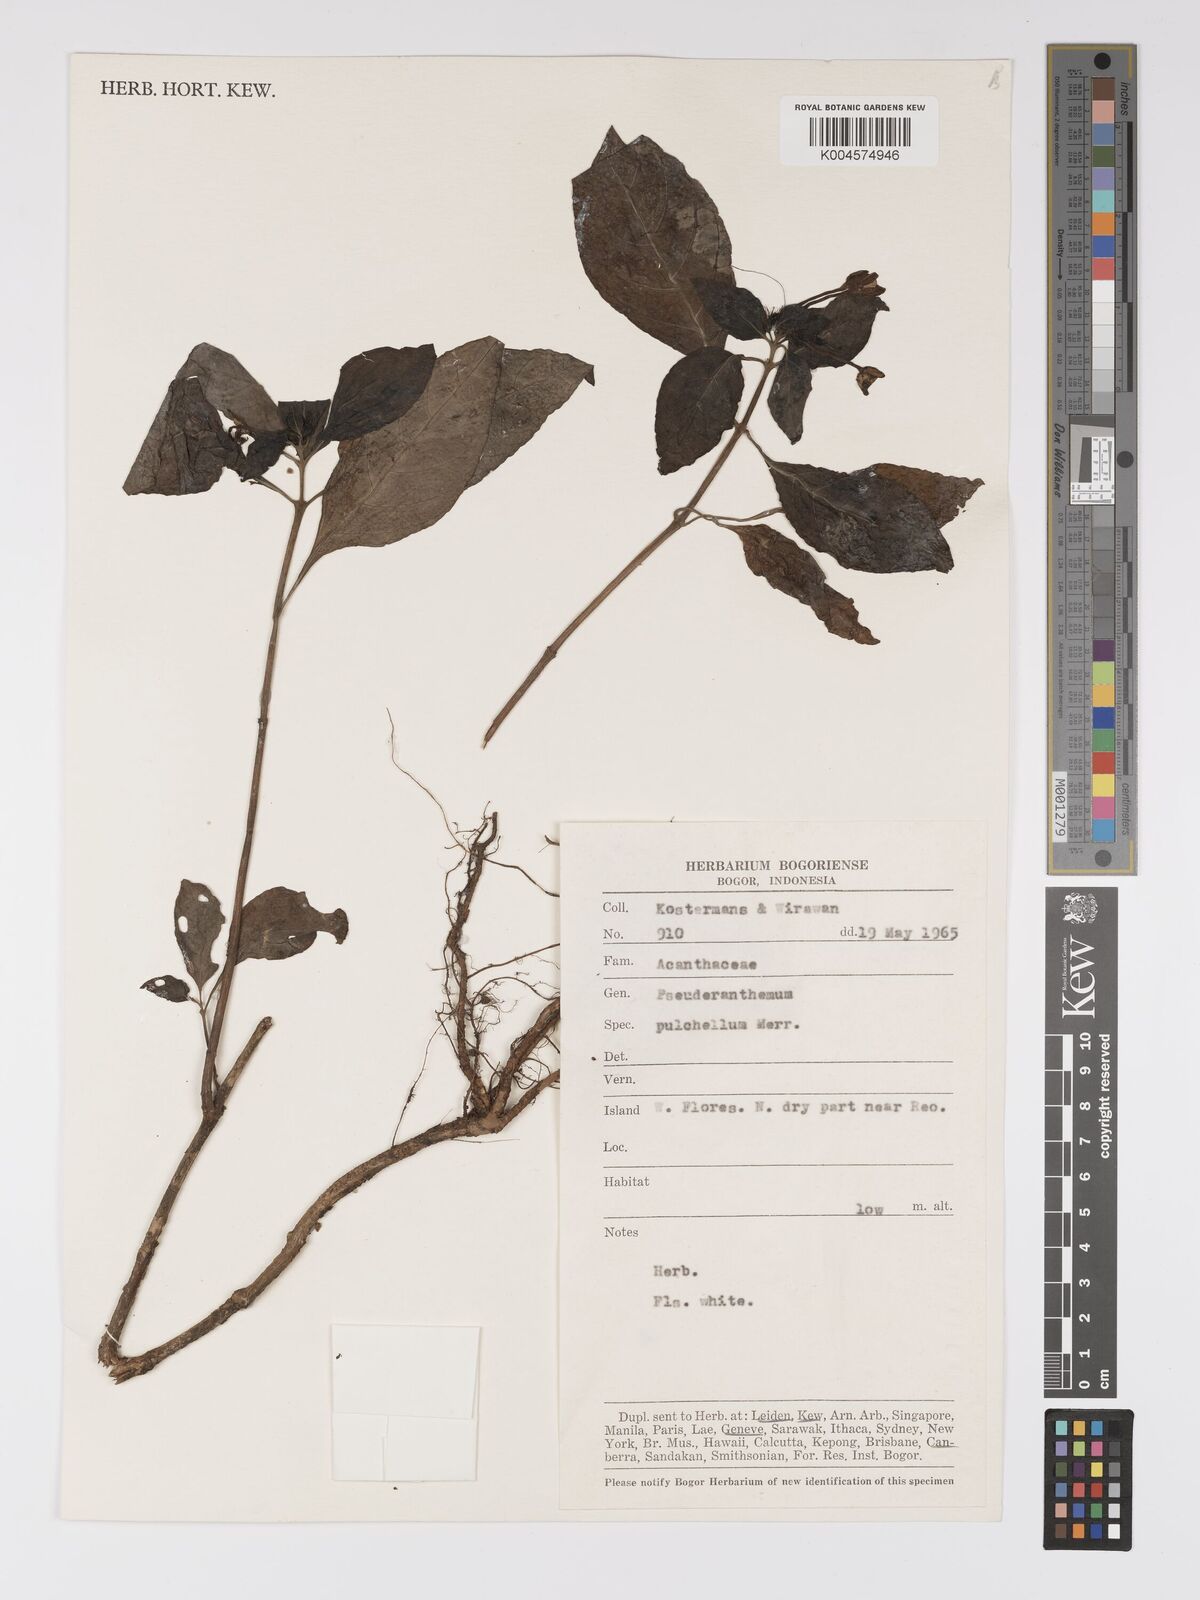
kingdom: Plantae
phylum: Tracheophyta
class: Magnoliopsida
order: Lamiales
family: Acanthaceae
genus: Pseuderanthemum
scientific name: Pseuderanthemum
